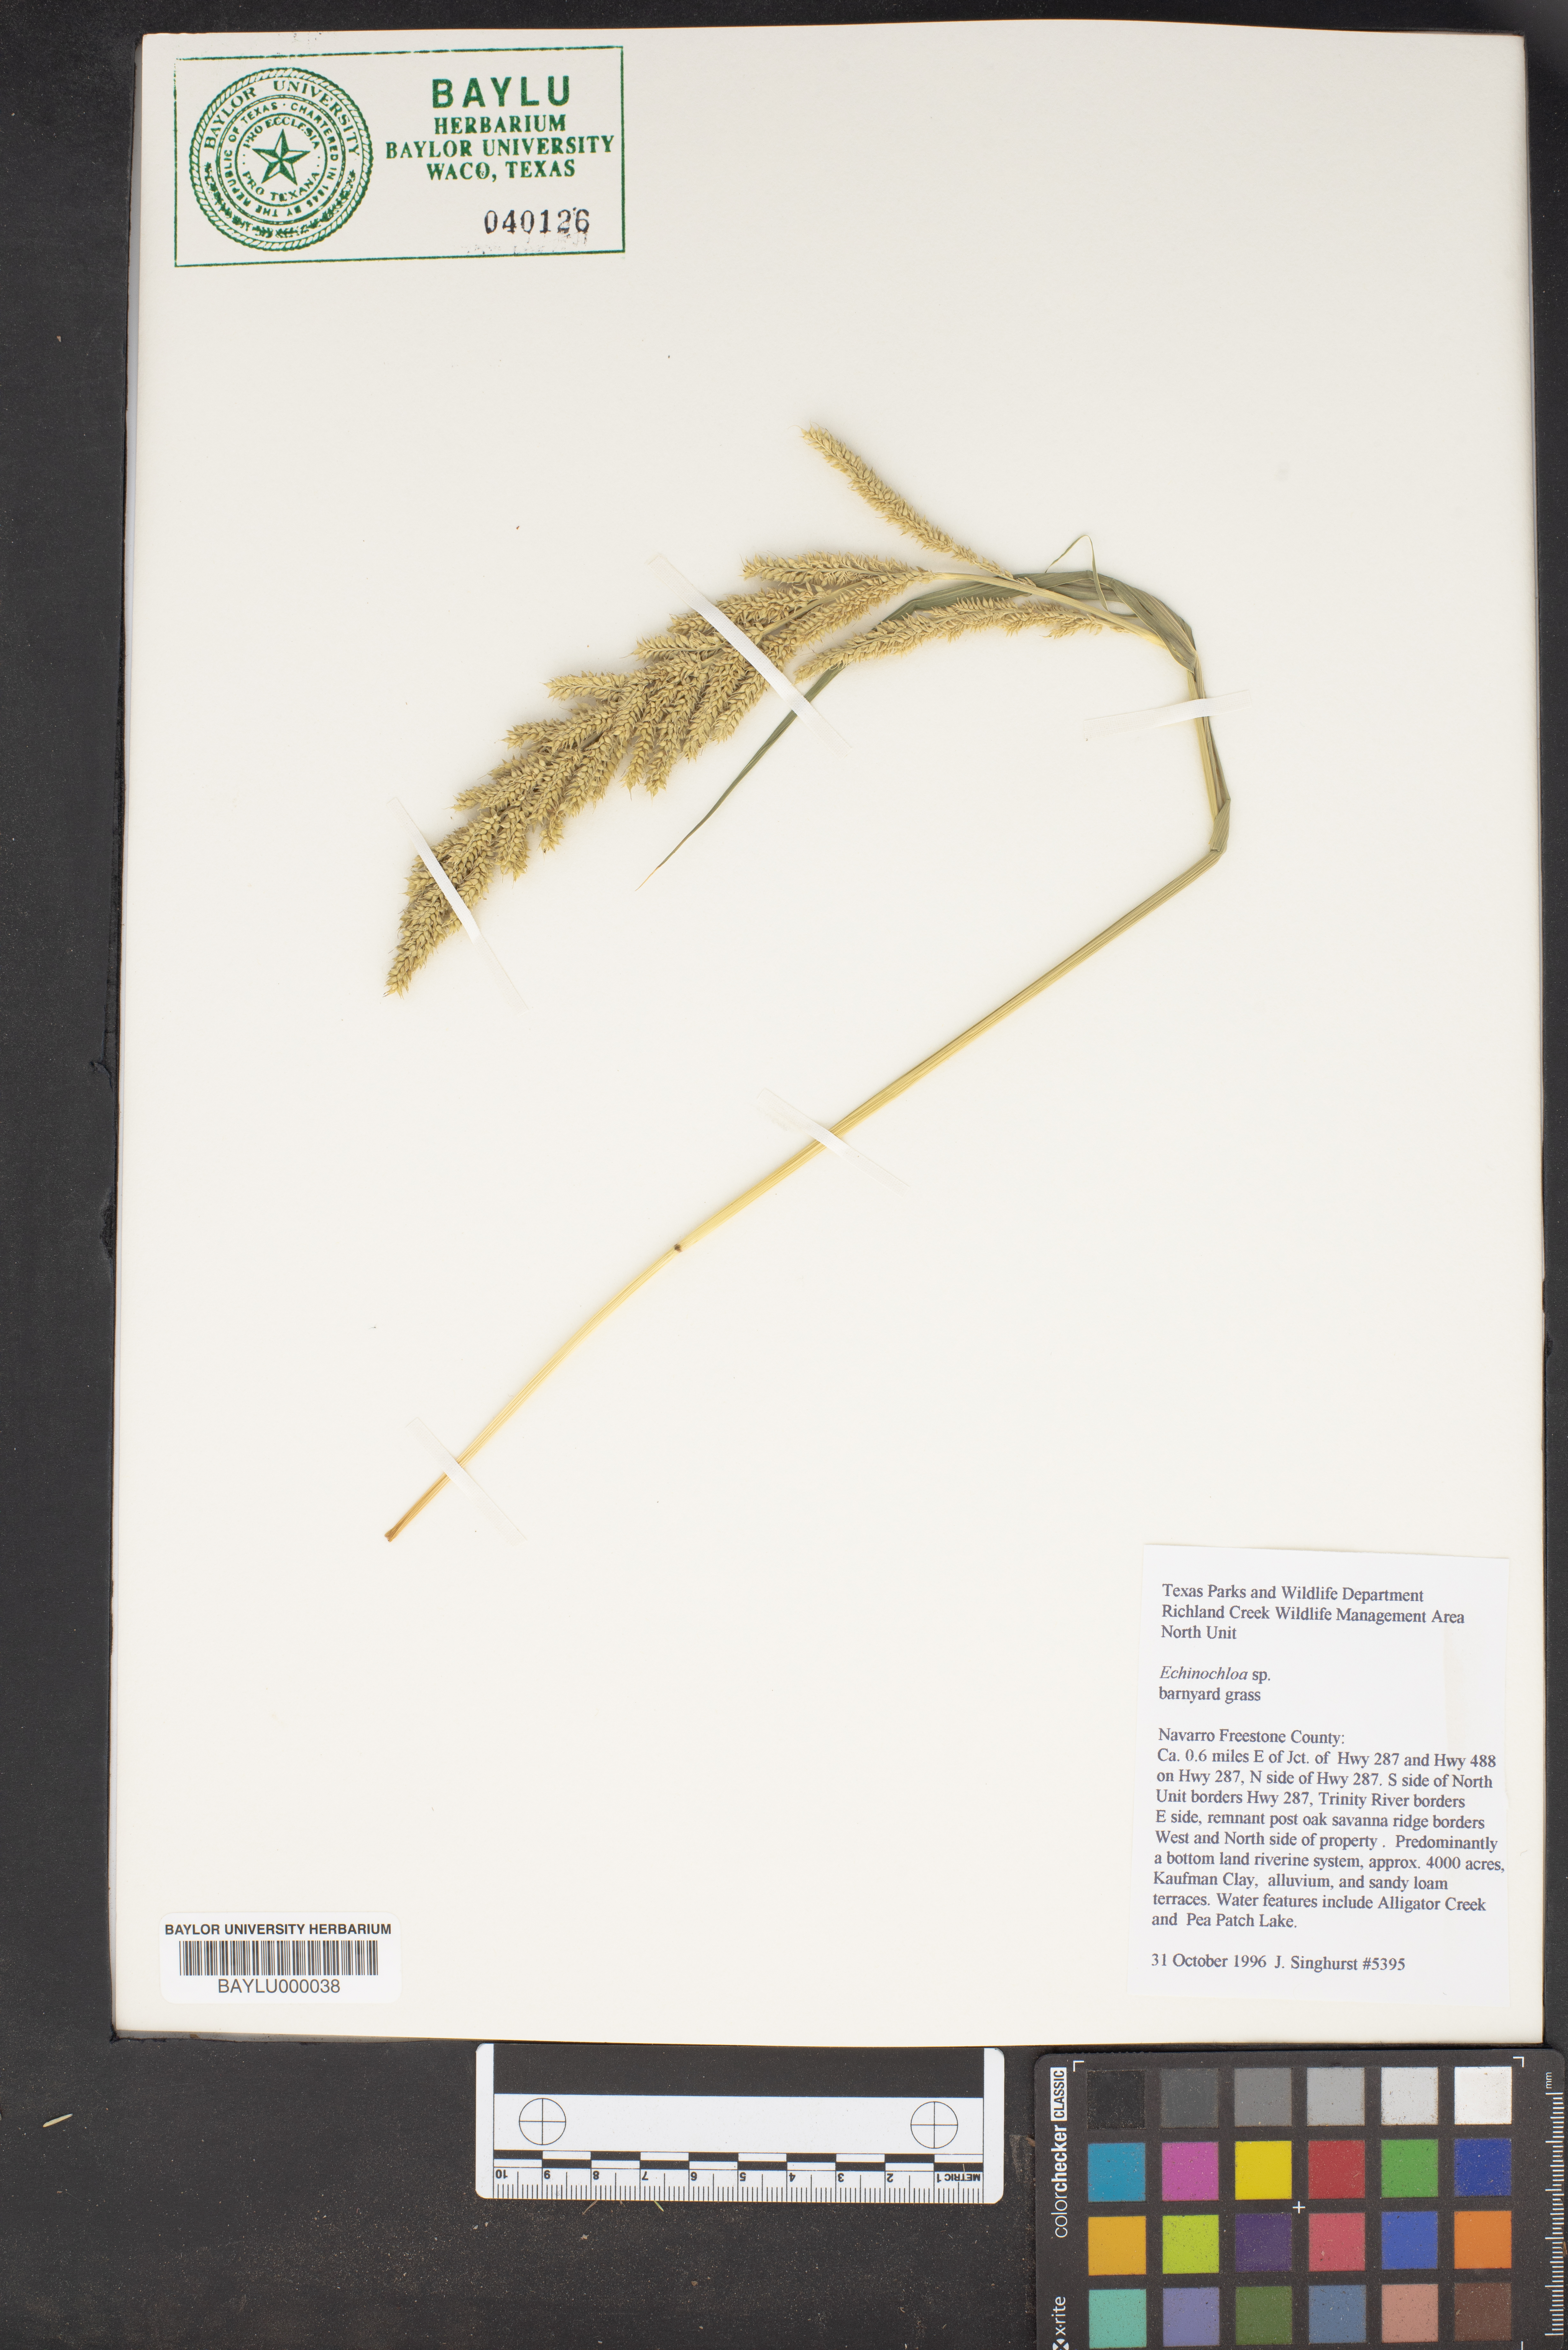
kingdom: Plantae
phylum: Tracheophyta
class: Liliopsida
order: Poales
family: Poaceae
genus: Echinochloa
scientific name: Echinochloa
